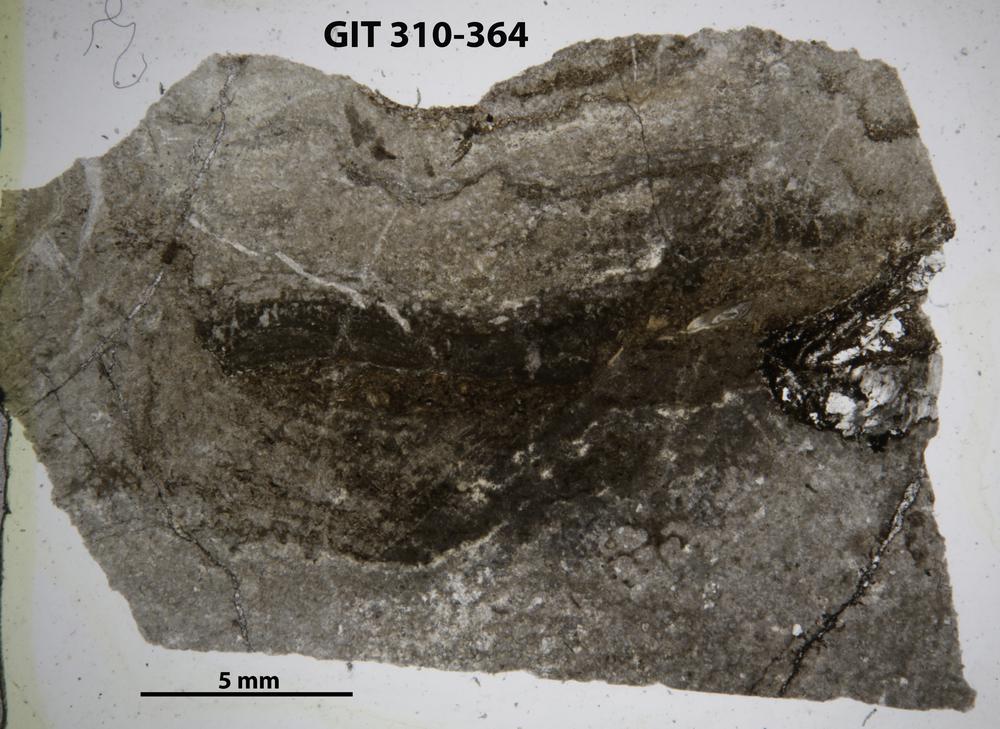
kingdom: Animalia
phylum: Porifera
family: Clathrodictyidae
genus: Clathrodictyon
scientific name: Clathrodictyon
